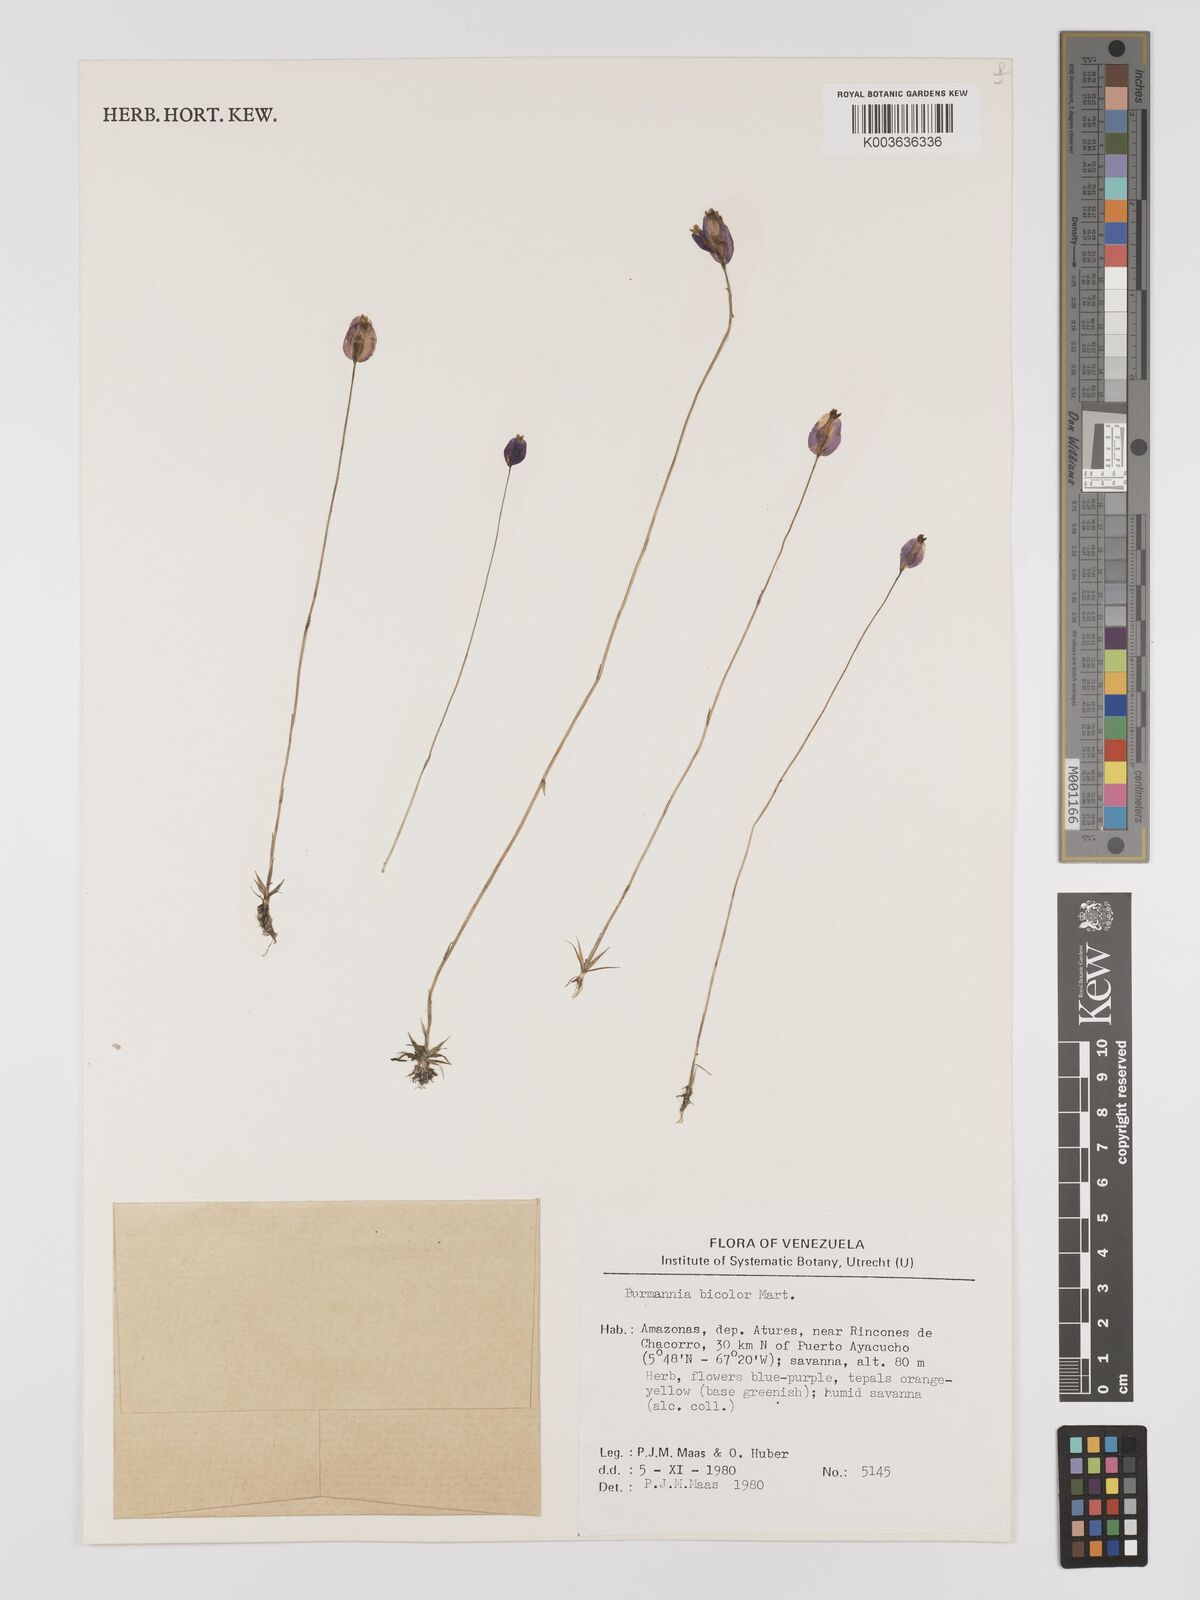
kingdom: Plantae
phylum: Tracheophyta
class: Liliopsida
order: Dioscoreales
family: Burmanniaceae
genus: Burmannia
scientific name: Burmannia bicolor
